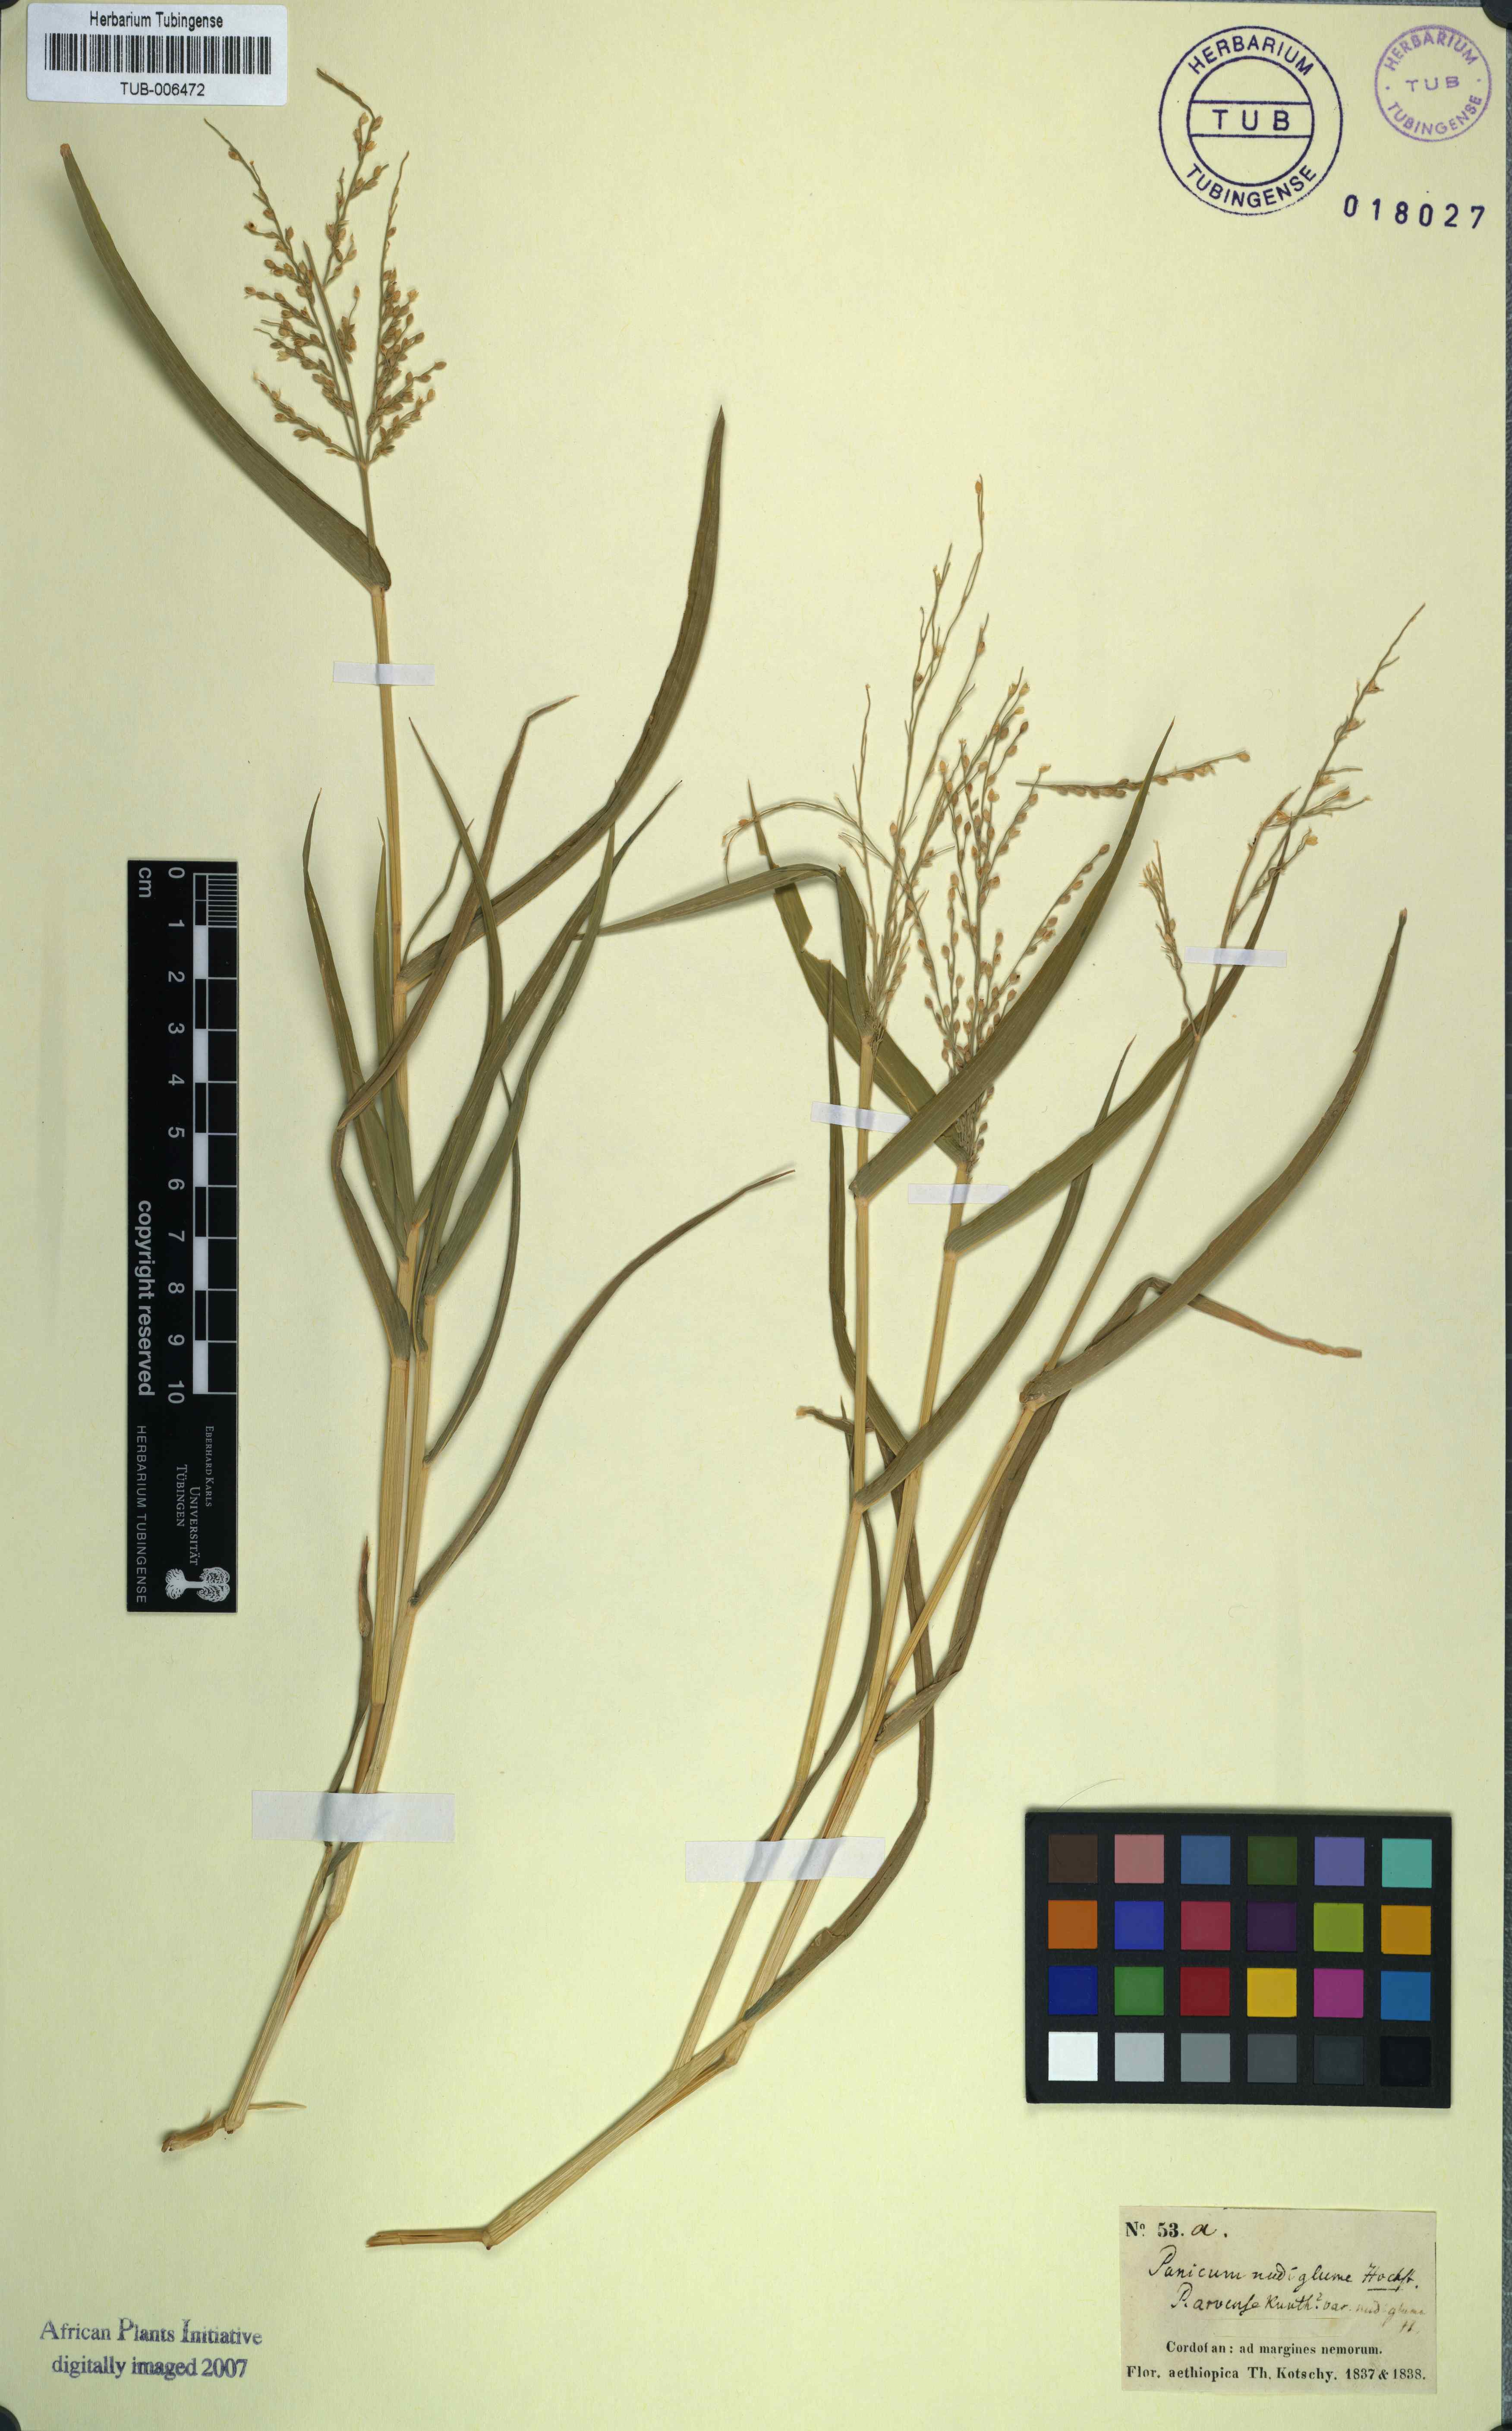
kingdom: Plantae
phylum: Tracheophyta
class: Liliopsida
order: Poales
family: Poaceae
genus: Urochloa
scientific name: Urochloa ramosa
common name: Browntop millet
